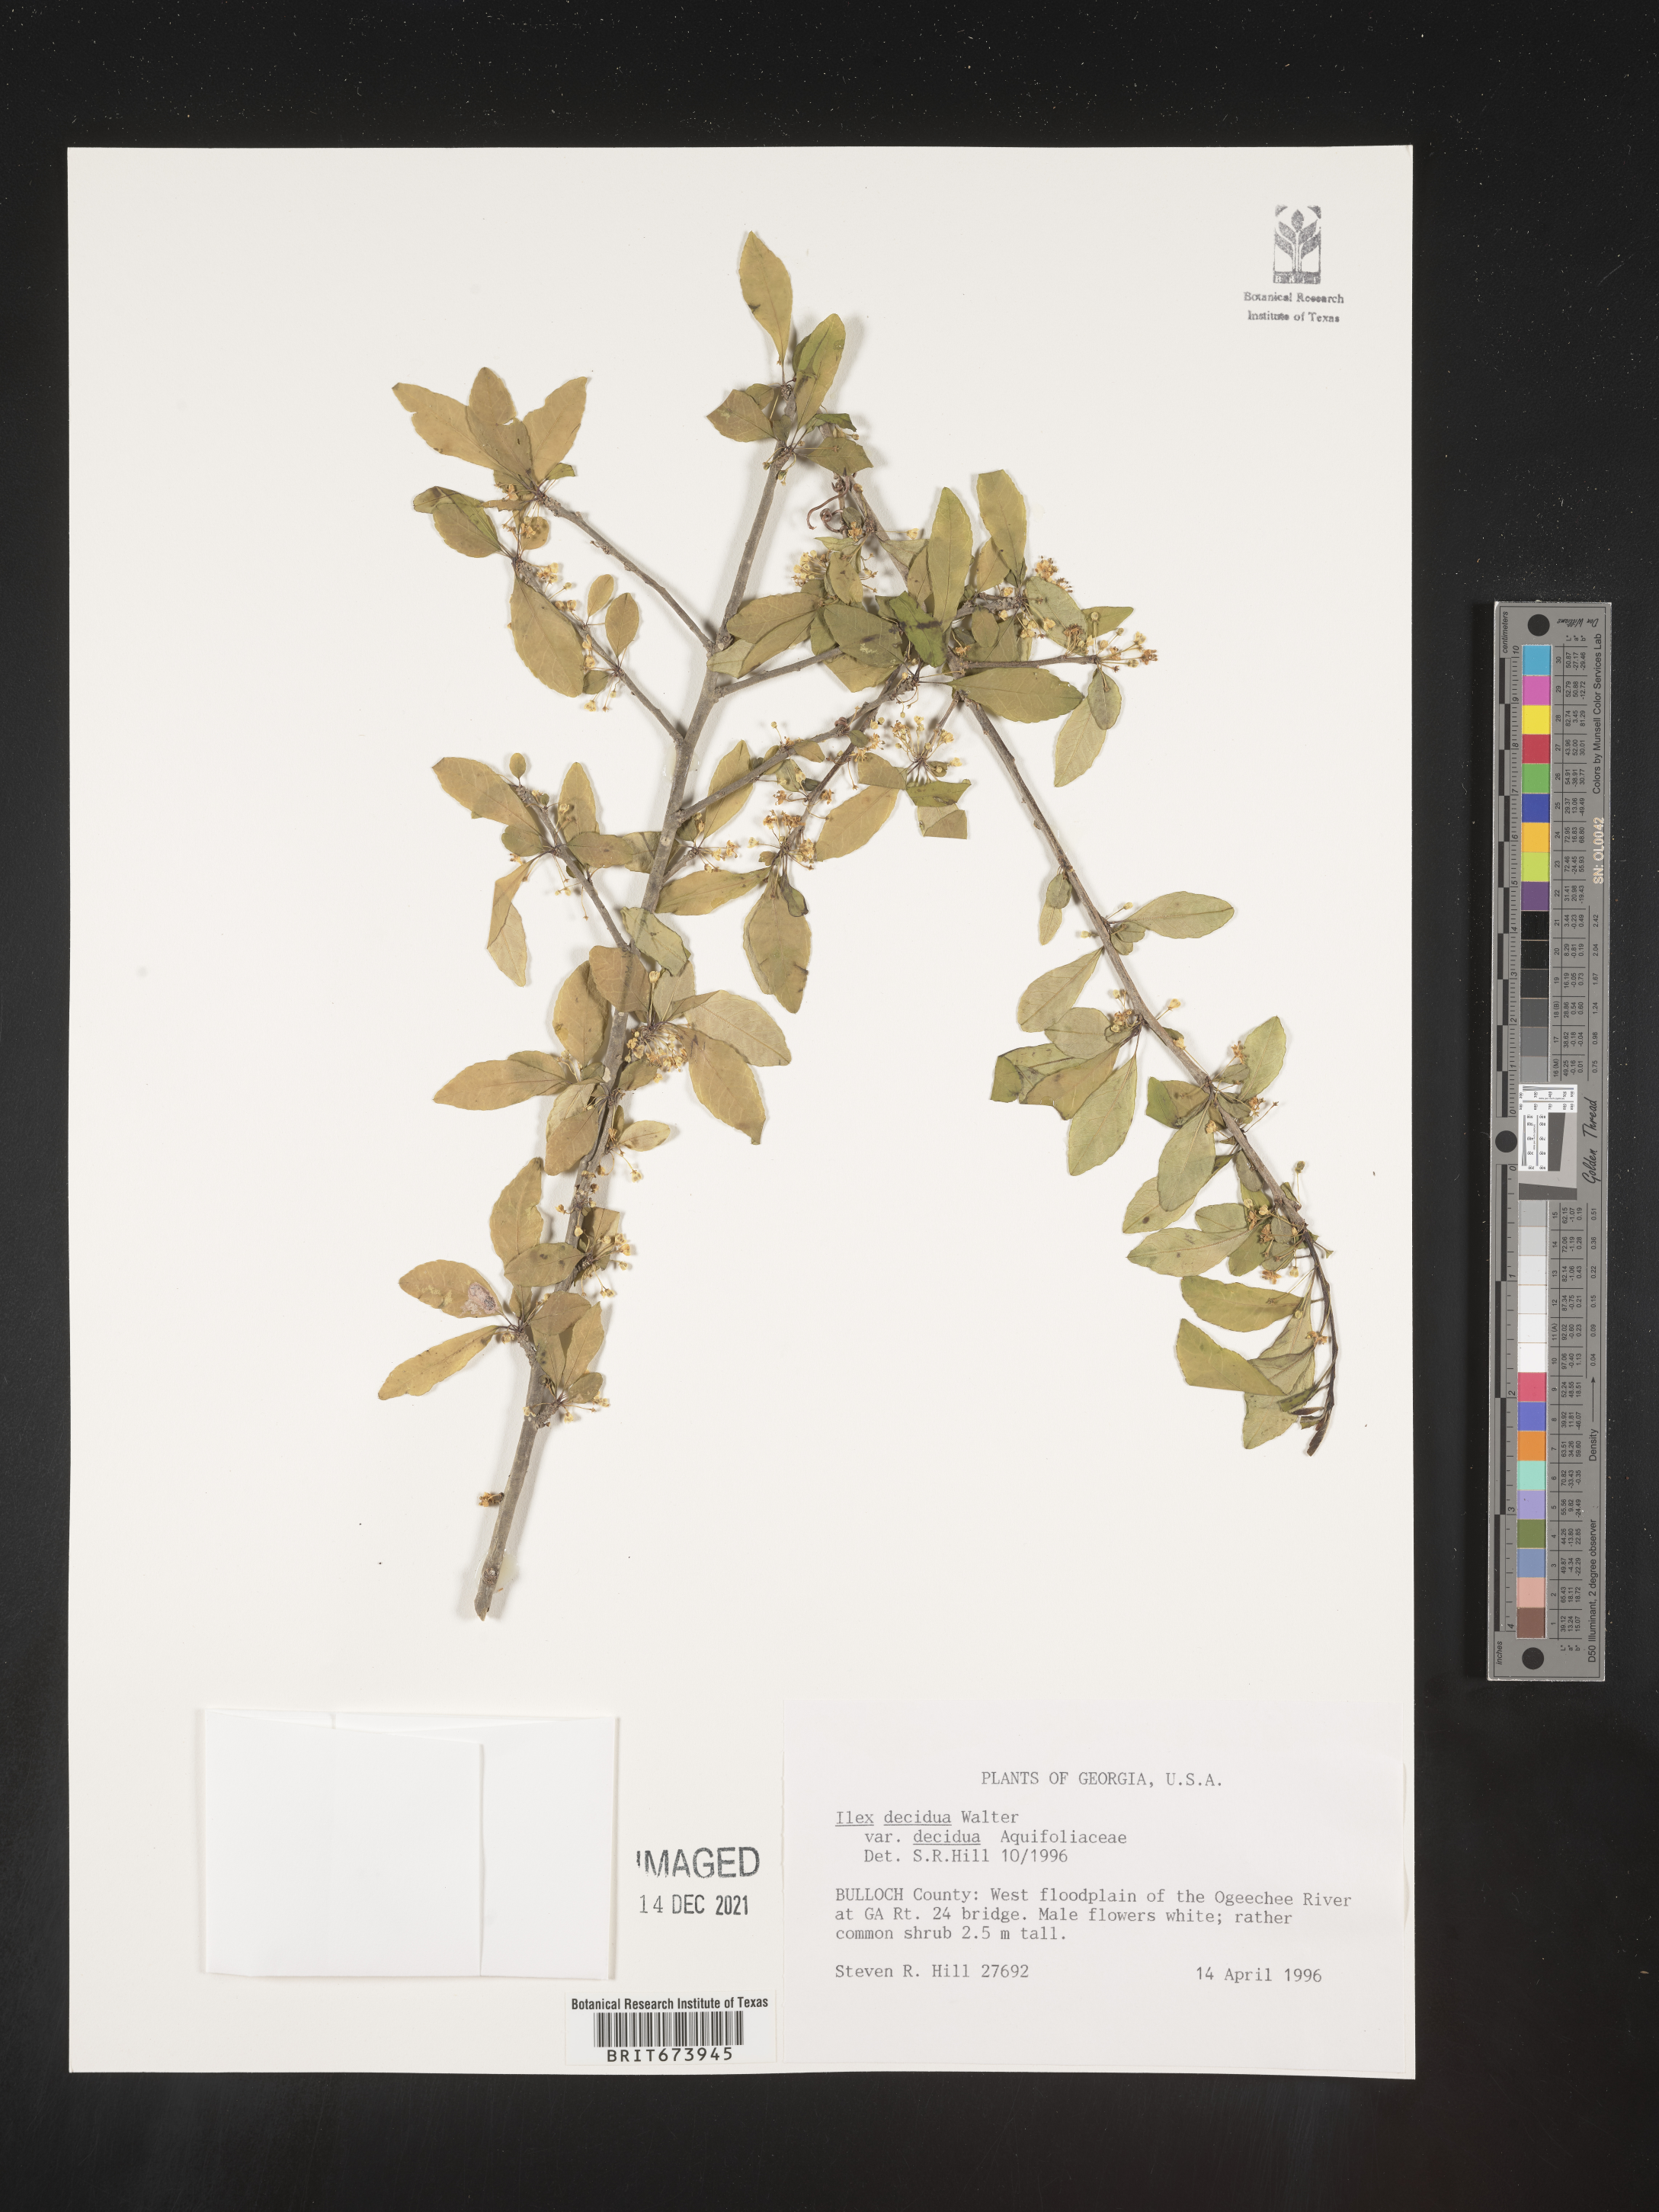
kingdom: Plantae
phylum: Tracheophyta
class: Magnoliopsida
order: Aquifoliales
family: Aquifoliaceae
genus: Ilex
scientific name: Ilex decidua
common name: Possum-haw
